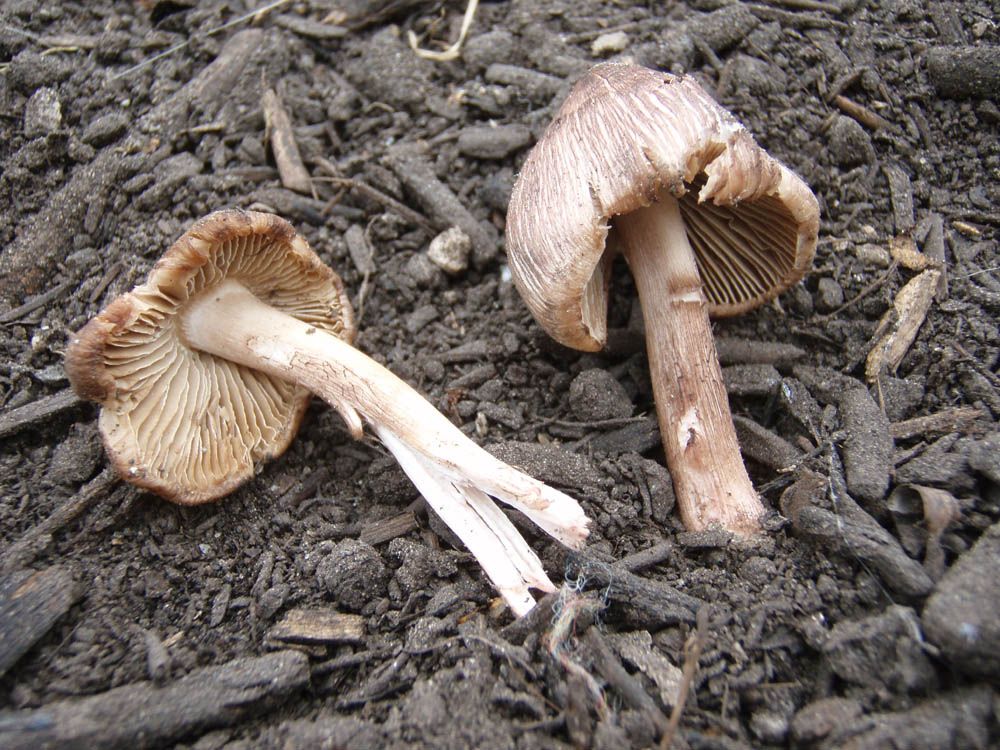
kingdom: Fungi
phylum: Basidiomycota
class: Agaricomycetes
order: Agaricales
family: Inocybaceae
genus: Inosperma
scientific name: Inosperma erubescens
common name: giftig trævlhat
